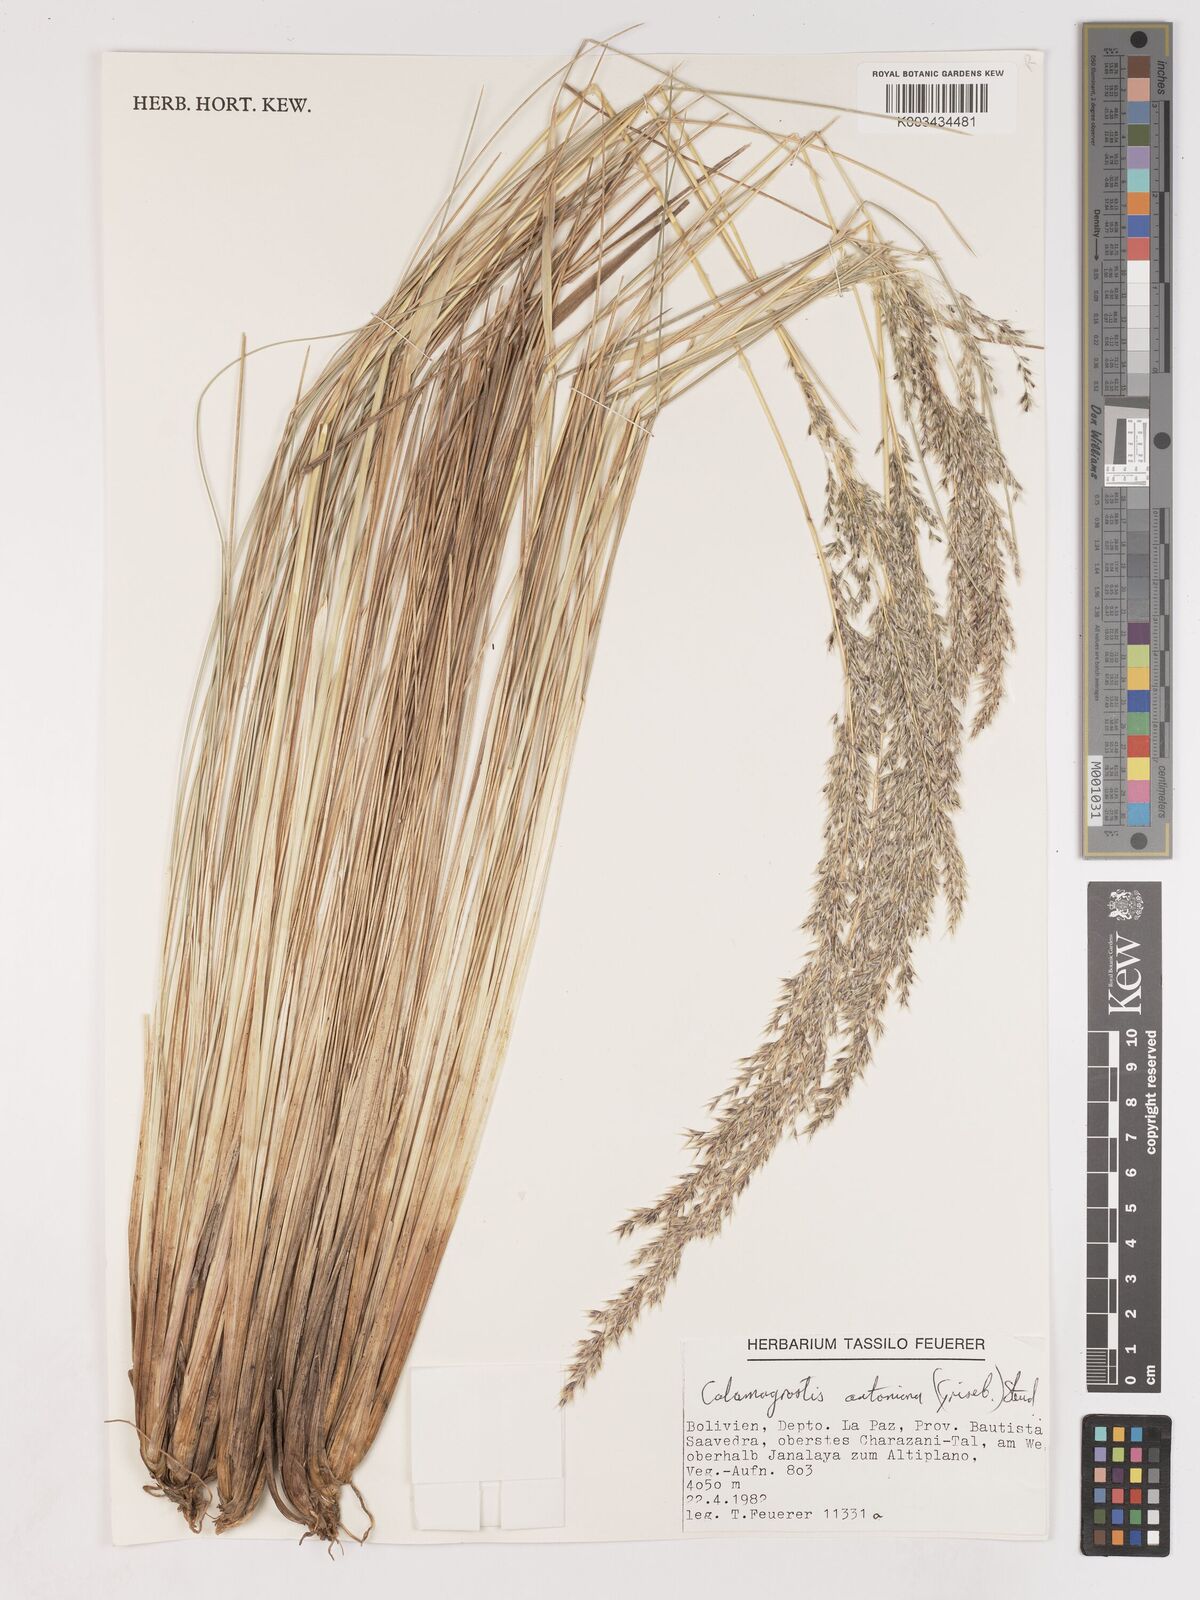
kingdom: Plantae
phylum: Tracheophyta
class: Liliopsida
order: Poales
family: Poaceae
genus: Cinnagrostis
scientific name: Cinnagrostis rigida
